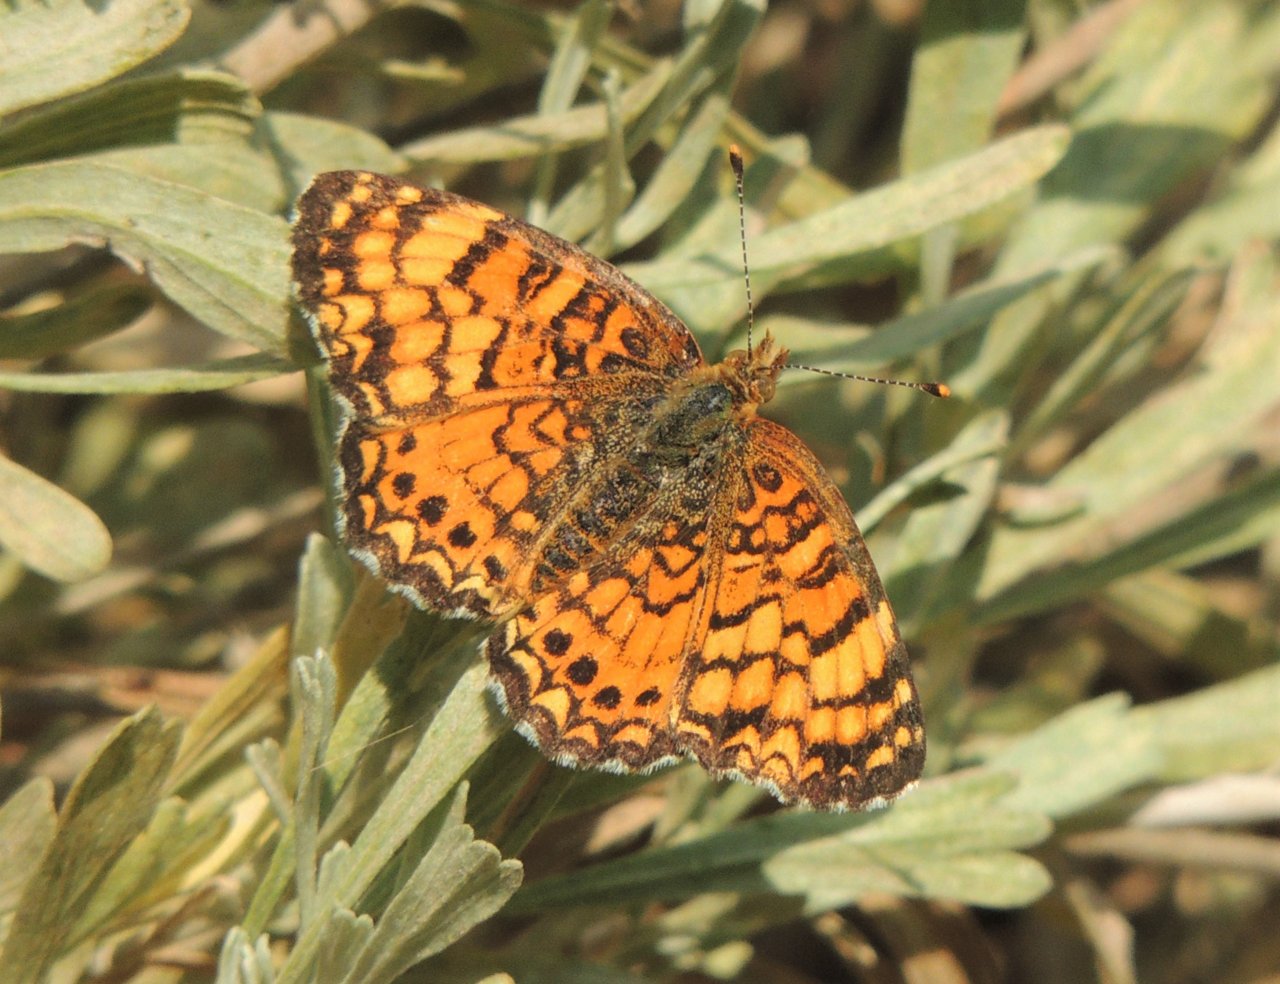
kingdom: Animalia
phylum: Arthropoda
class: Insecta
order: Lepidoptera
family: Nymphalidae
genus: Eresia
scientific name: Eresia aveyrona
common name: Mylitta Crescent
